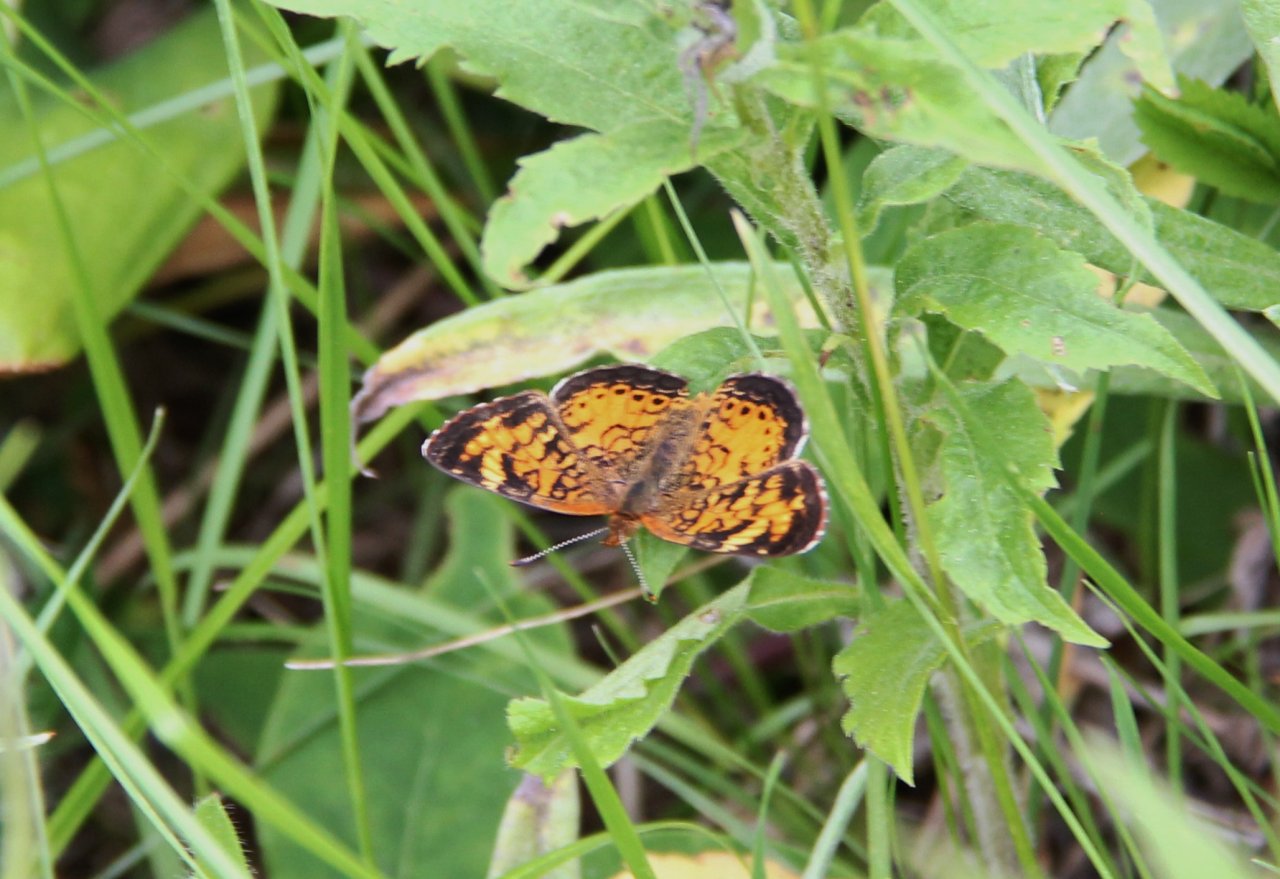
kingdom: Animalia
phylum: Arthropoda
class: Insecta
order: Lepidoptera
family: Nymphalidae
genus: Phyciodes
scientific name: Phyciodes tharos
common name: Northern Crescent
